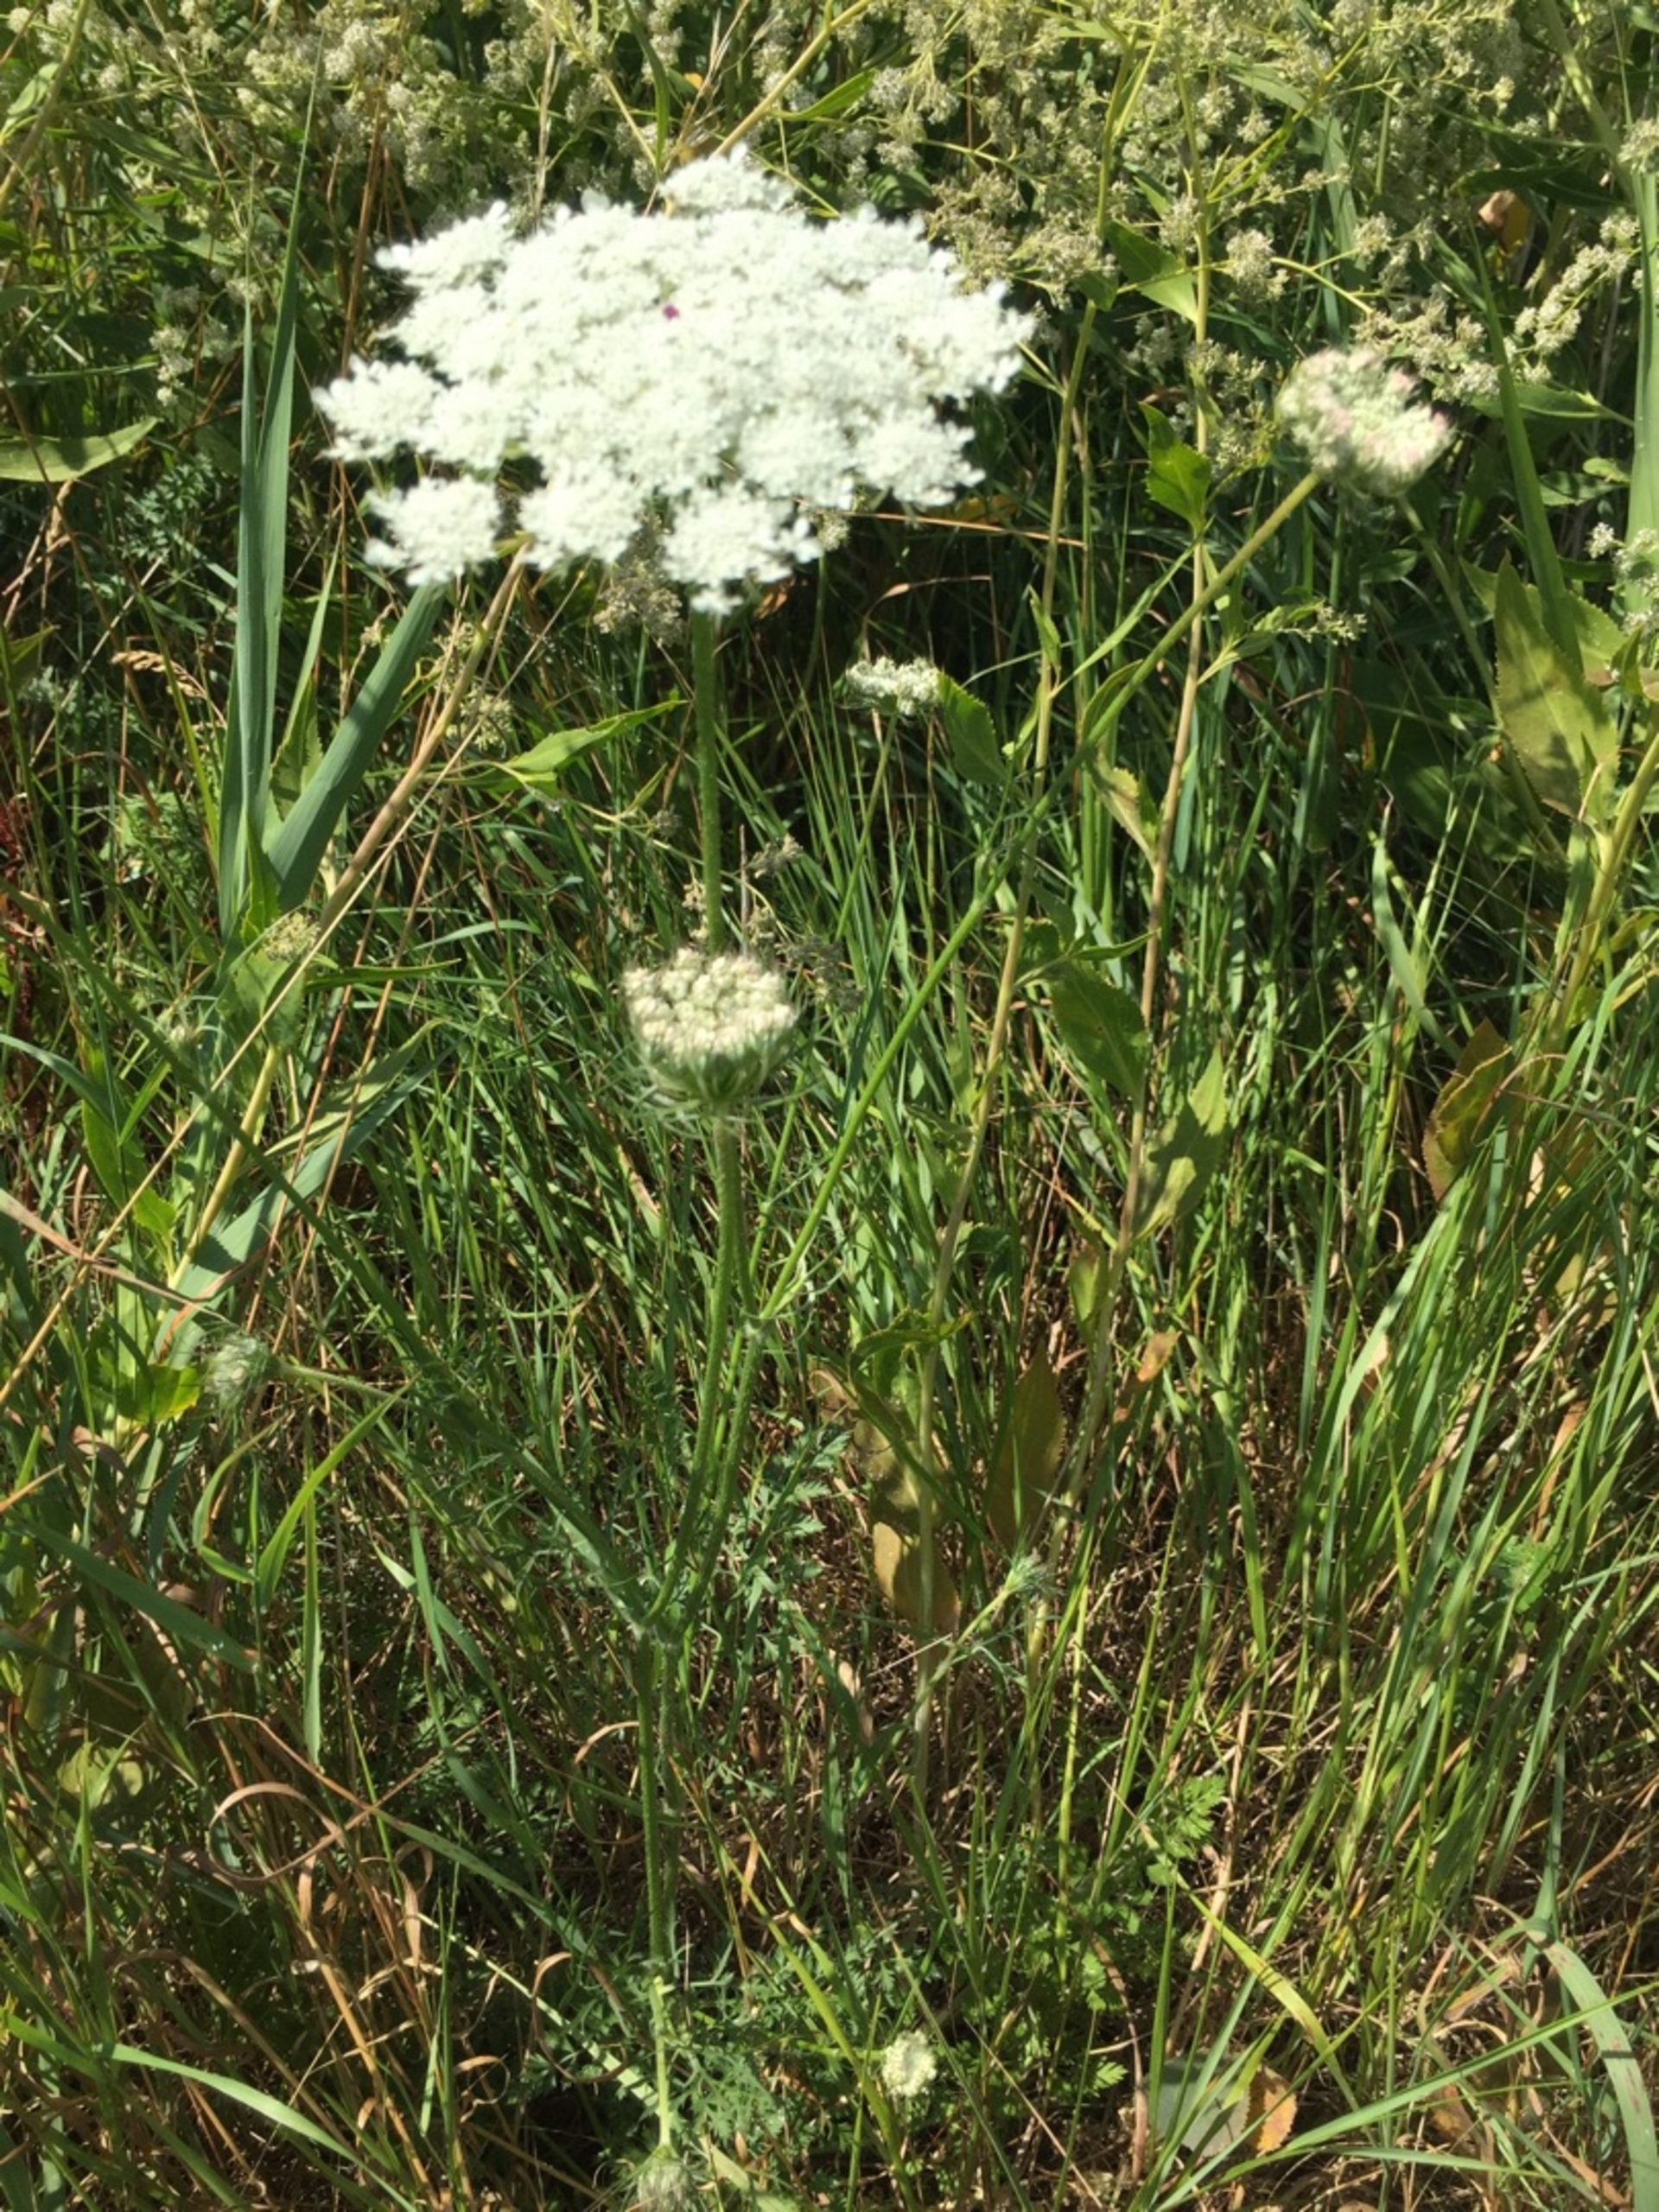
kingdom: Plantae
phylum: Tracheophyta
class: Magnoliopsida
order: Apiales
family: Apiaceae
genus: Daucus
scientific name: Daucus carota
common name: Vild gulerod
